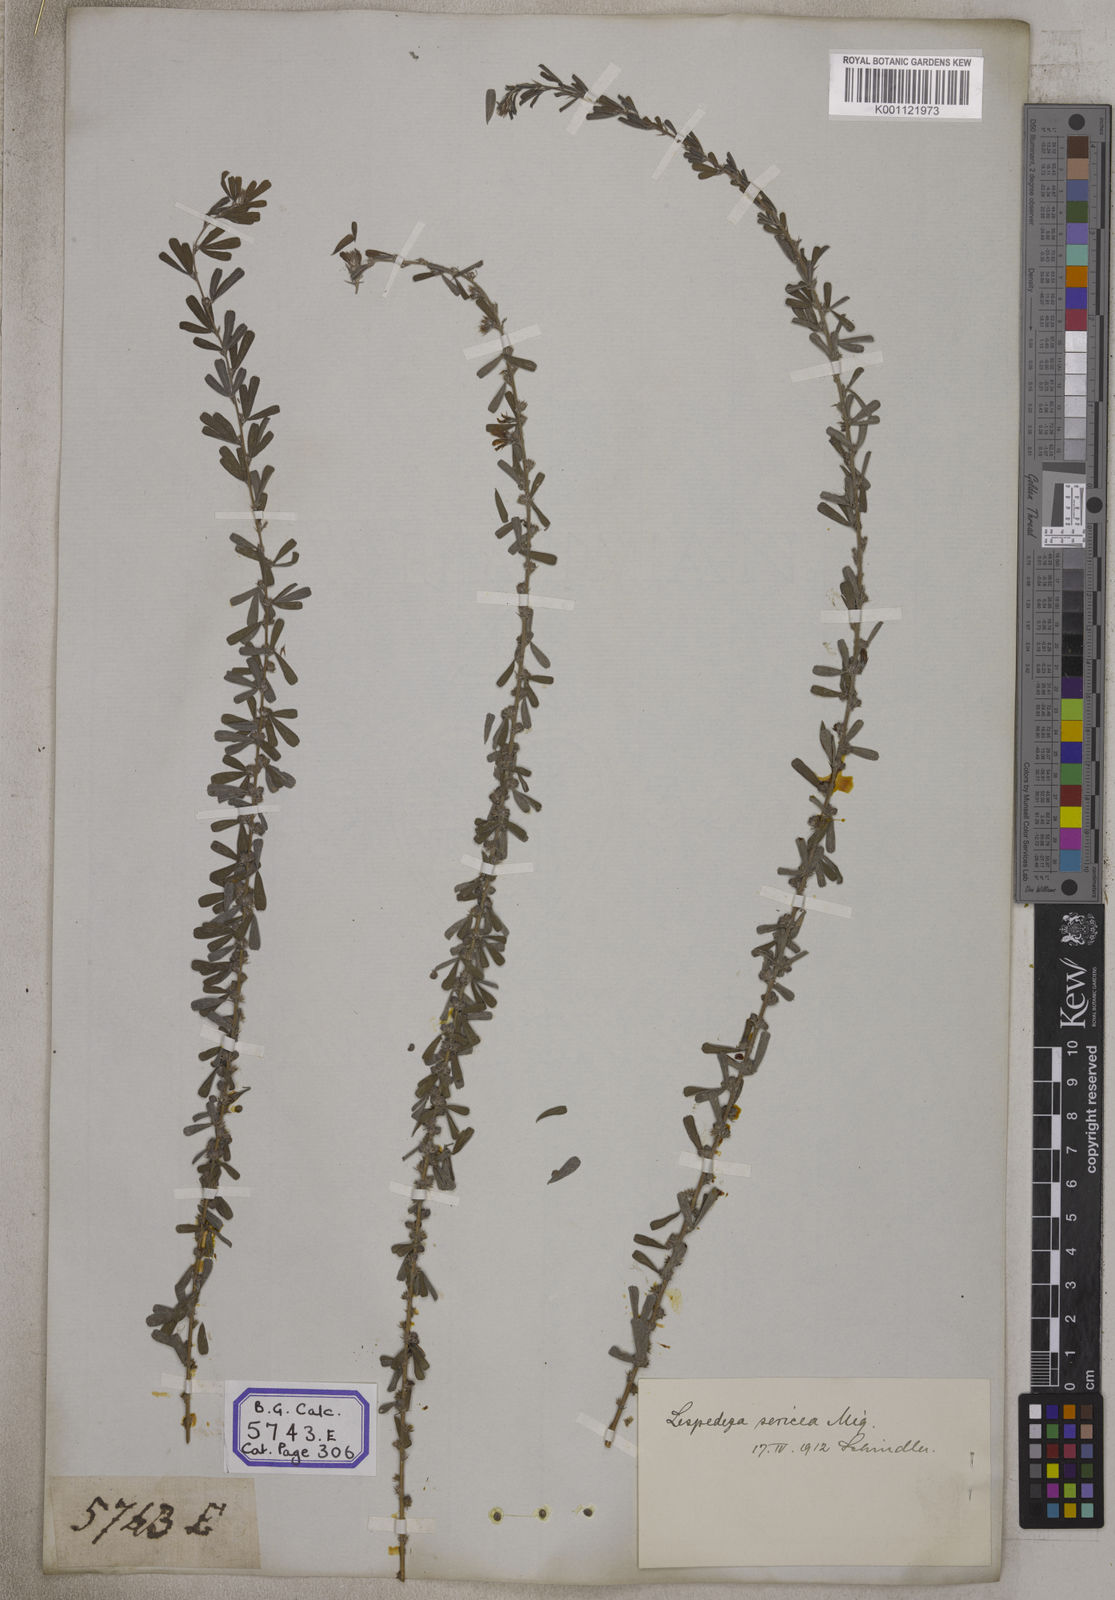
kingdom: Plantae
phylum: Tracheophyta
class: Magnoliopsida
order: Fabales
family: Fabaceae
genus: Indigofera
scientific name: Indigofera aspalathoides
